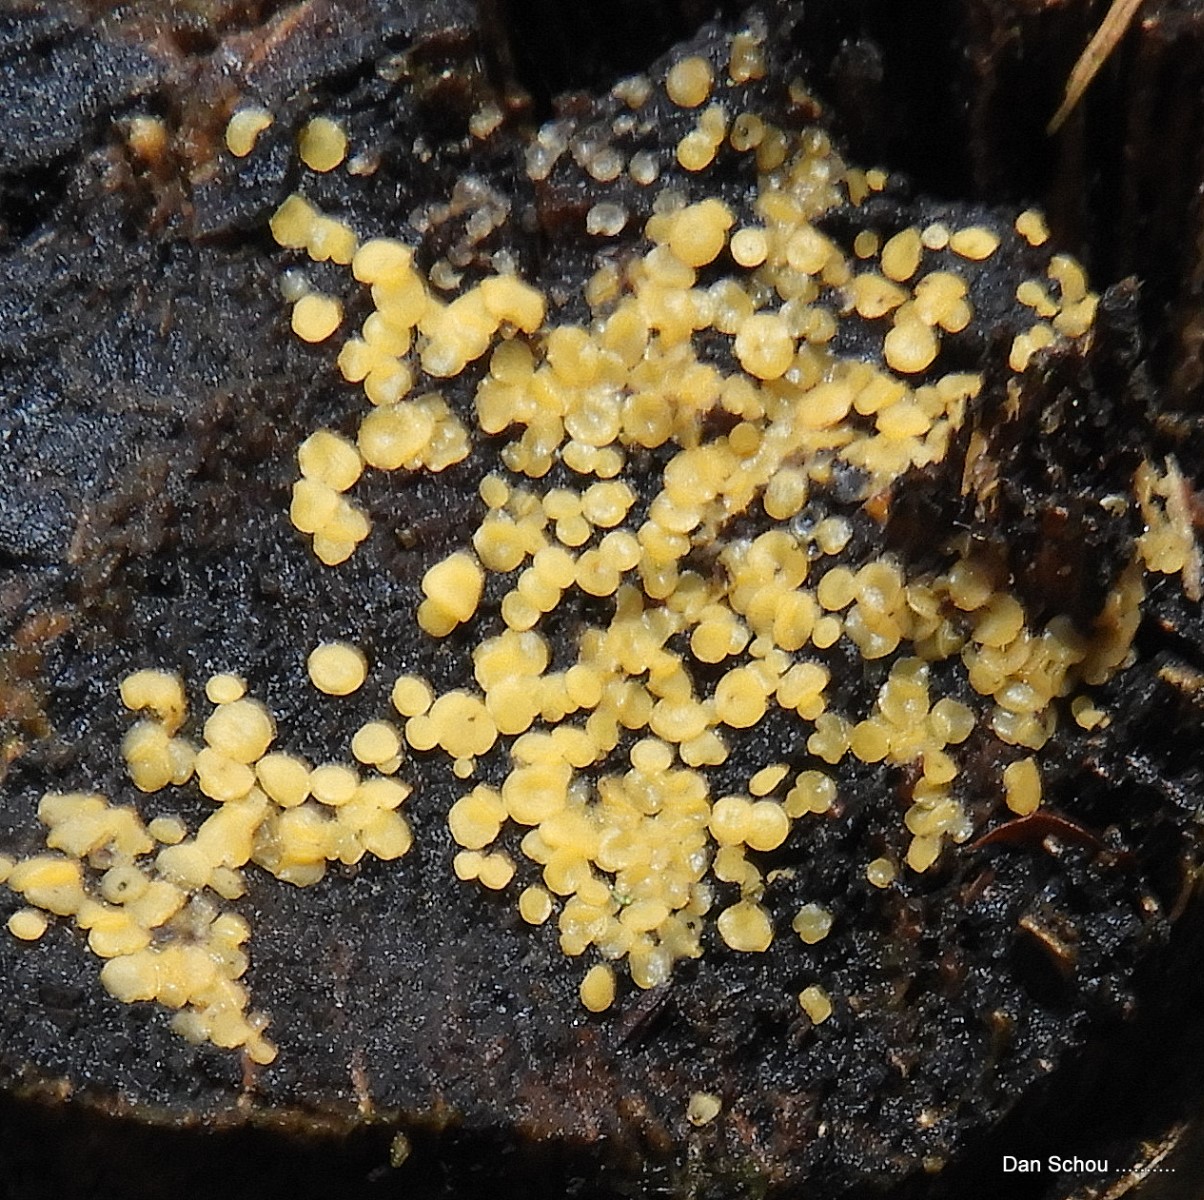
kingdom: Fungi
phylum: Ascomycota
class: Leotiomycetes
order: Helotiales
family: Pezizellaceae
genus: Calycina
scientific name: Calycina citrina
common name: almindelig gulskive
